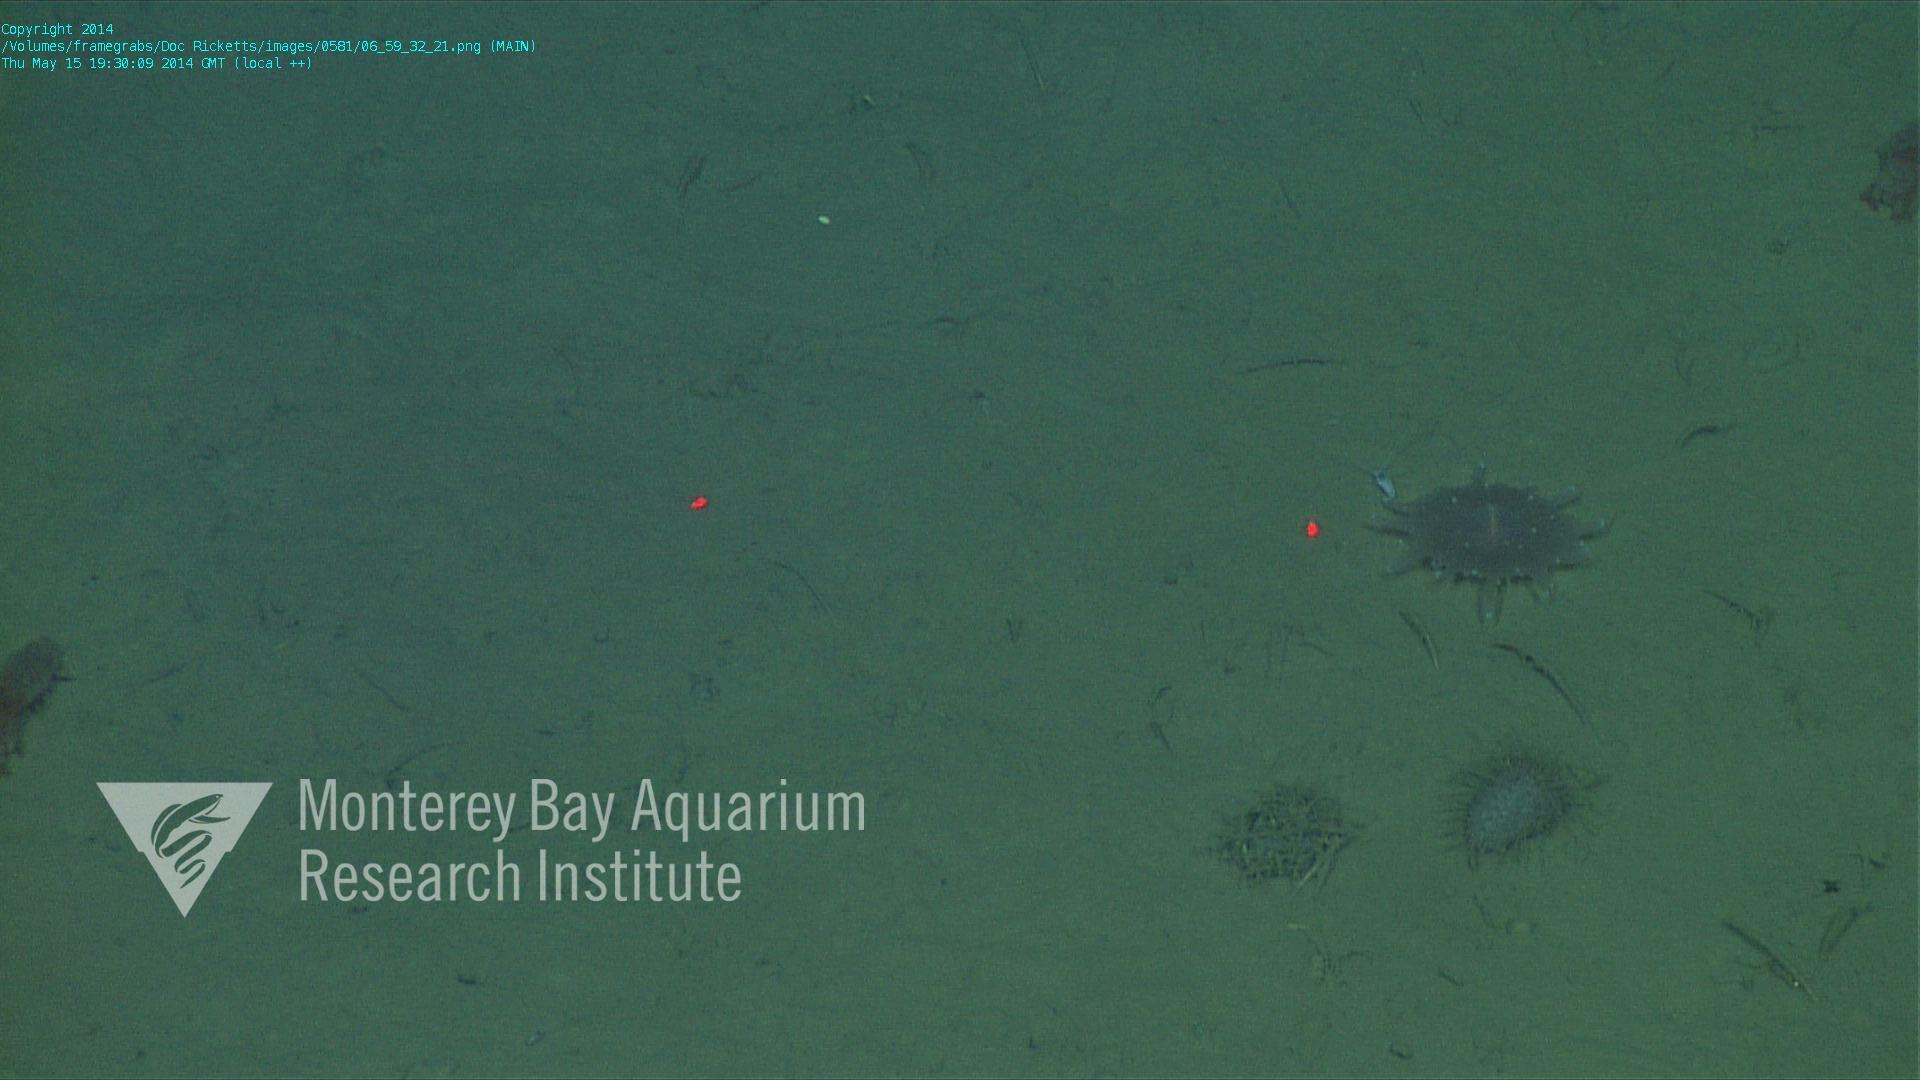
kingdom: Animalia
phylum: Cnidaria
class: Anthozoa
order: Scleractinia
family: Fungiacyathidae
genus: Fungiacyathus
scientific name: Fungiacyathus marenzelleri
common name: Marenzeller's stony coral
